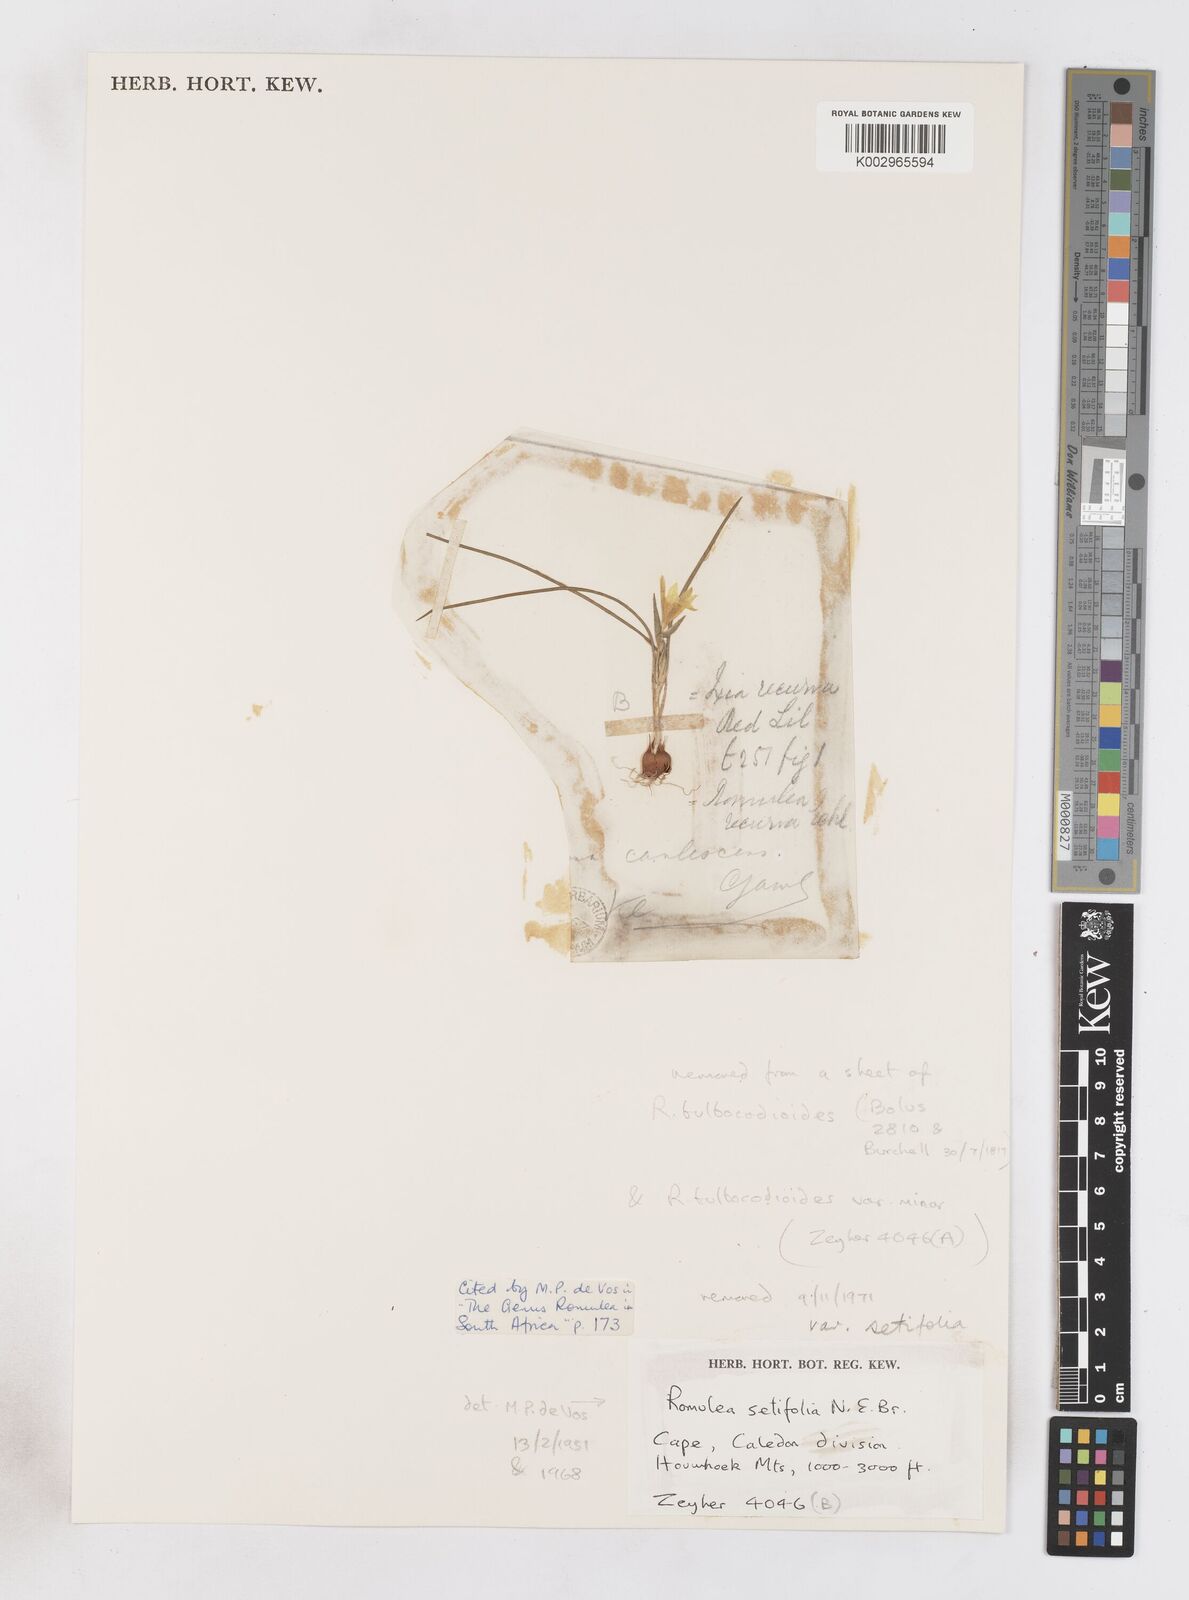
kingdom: Plantae
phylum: Tracheophyta
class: Liliopsida
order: Asparagales
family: Iridaceae
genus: Romulea
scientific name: Romulea setifolia
